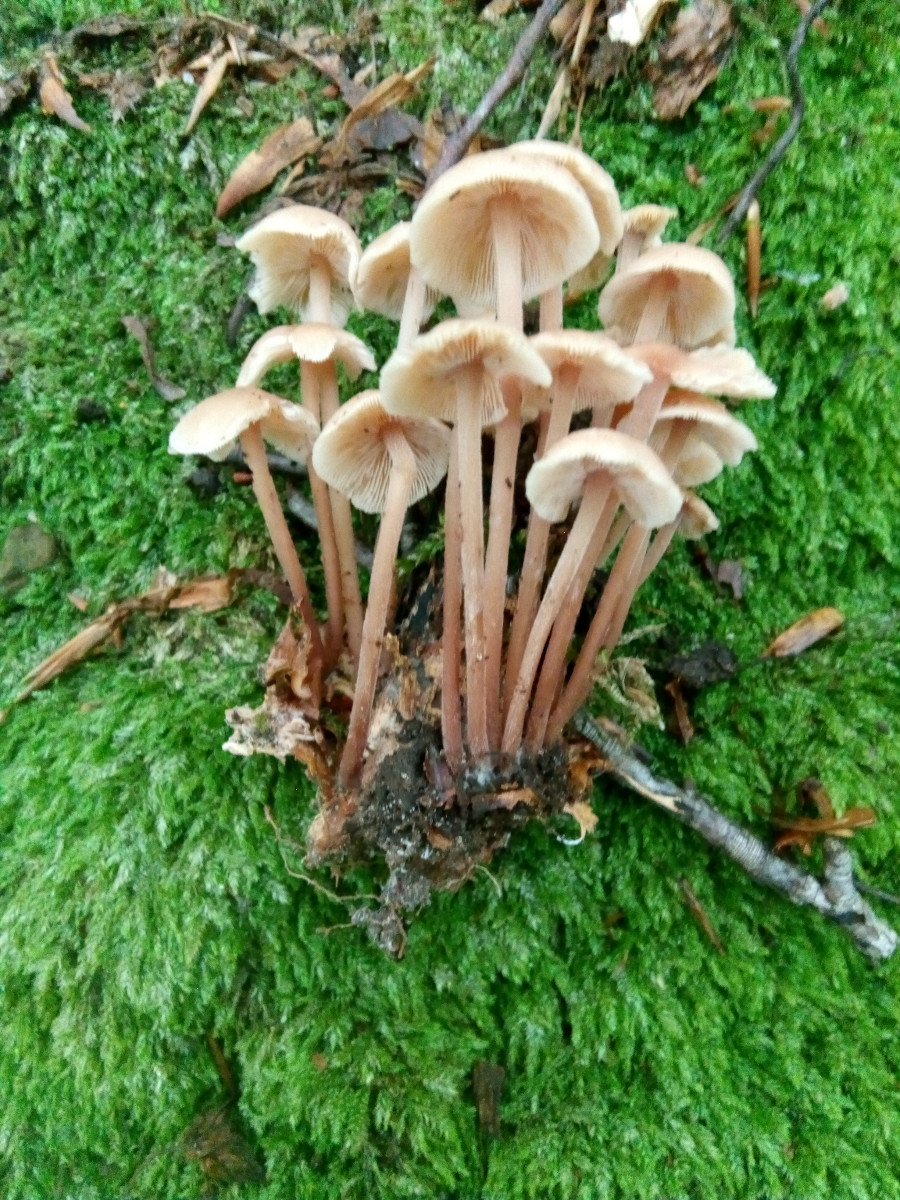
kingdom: Fungi
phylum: Basidiomycota
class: Agaricomycetes
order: Agaricales
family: Omphalotaceae
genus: Collybiopsis
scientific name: Collybiopsis confluens
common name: knippe-fladhat
